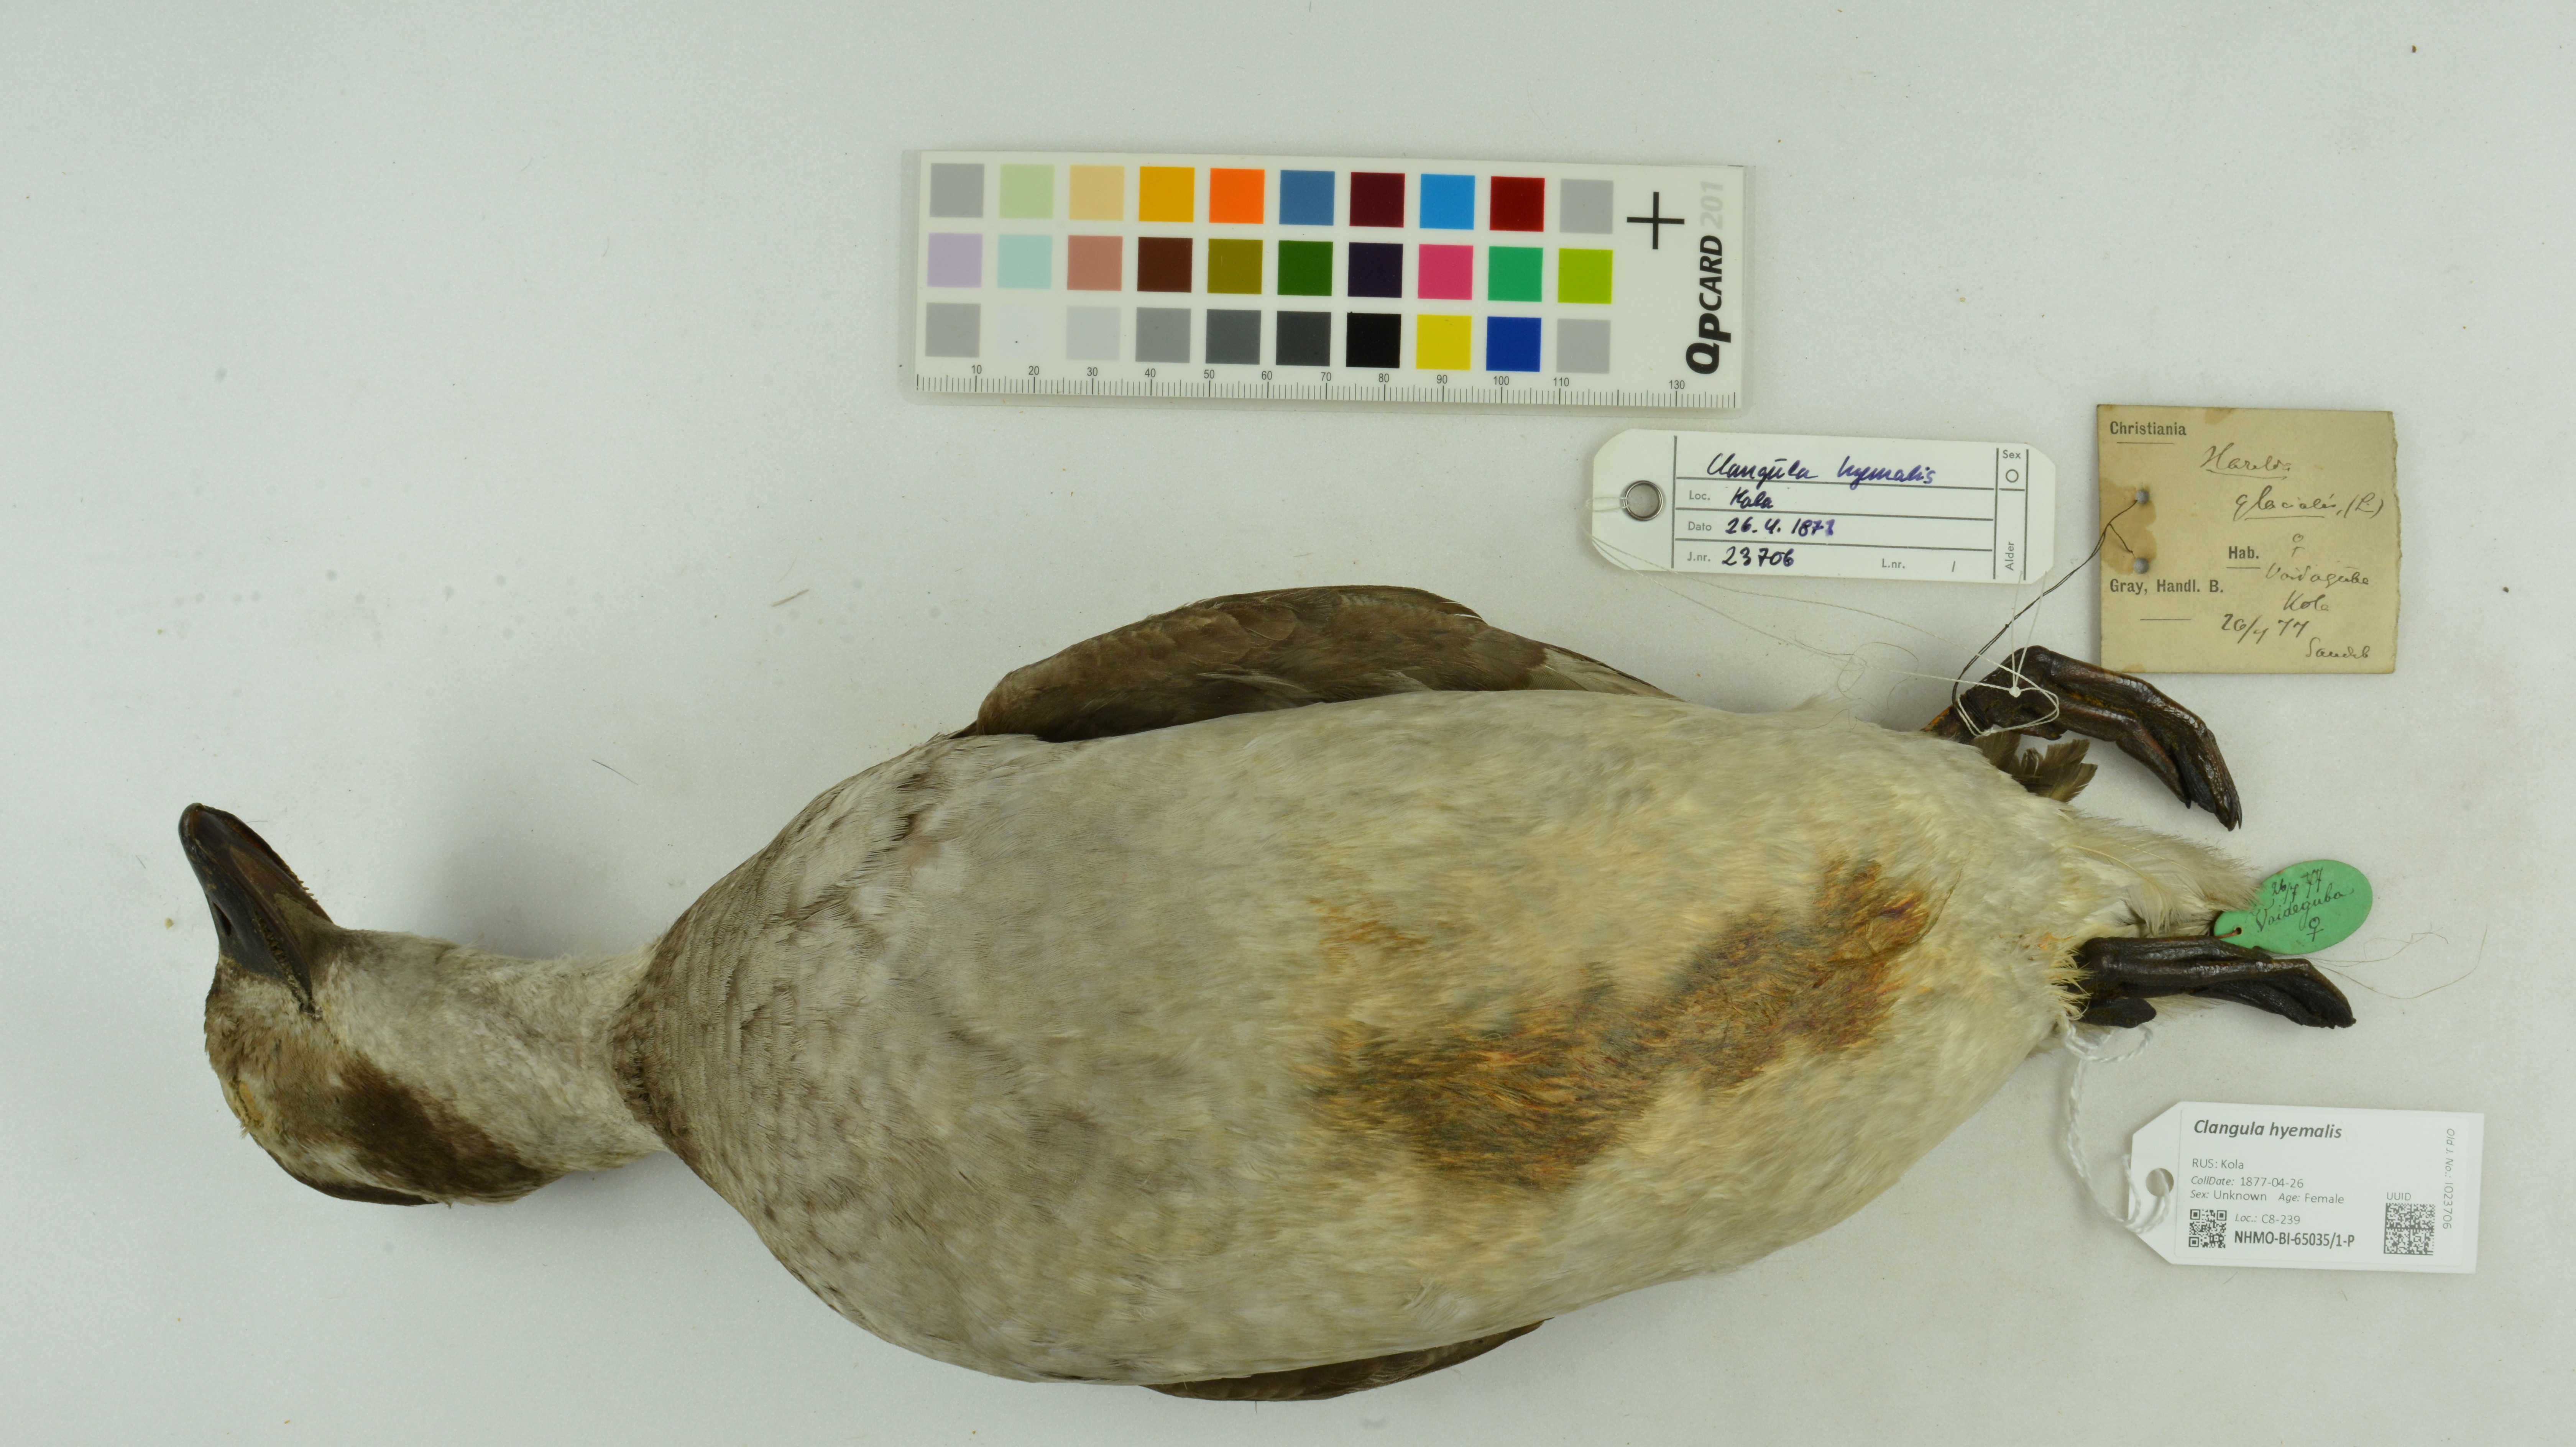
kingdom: Animalia
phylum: Chordata
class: Aves
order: Anseriformes
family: Anatidae
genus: Clangula
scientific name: Clangula hyemalis
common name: Long-tailed duck
